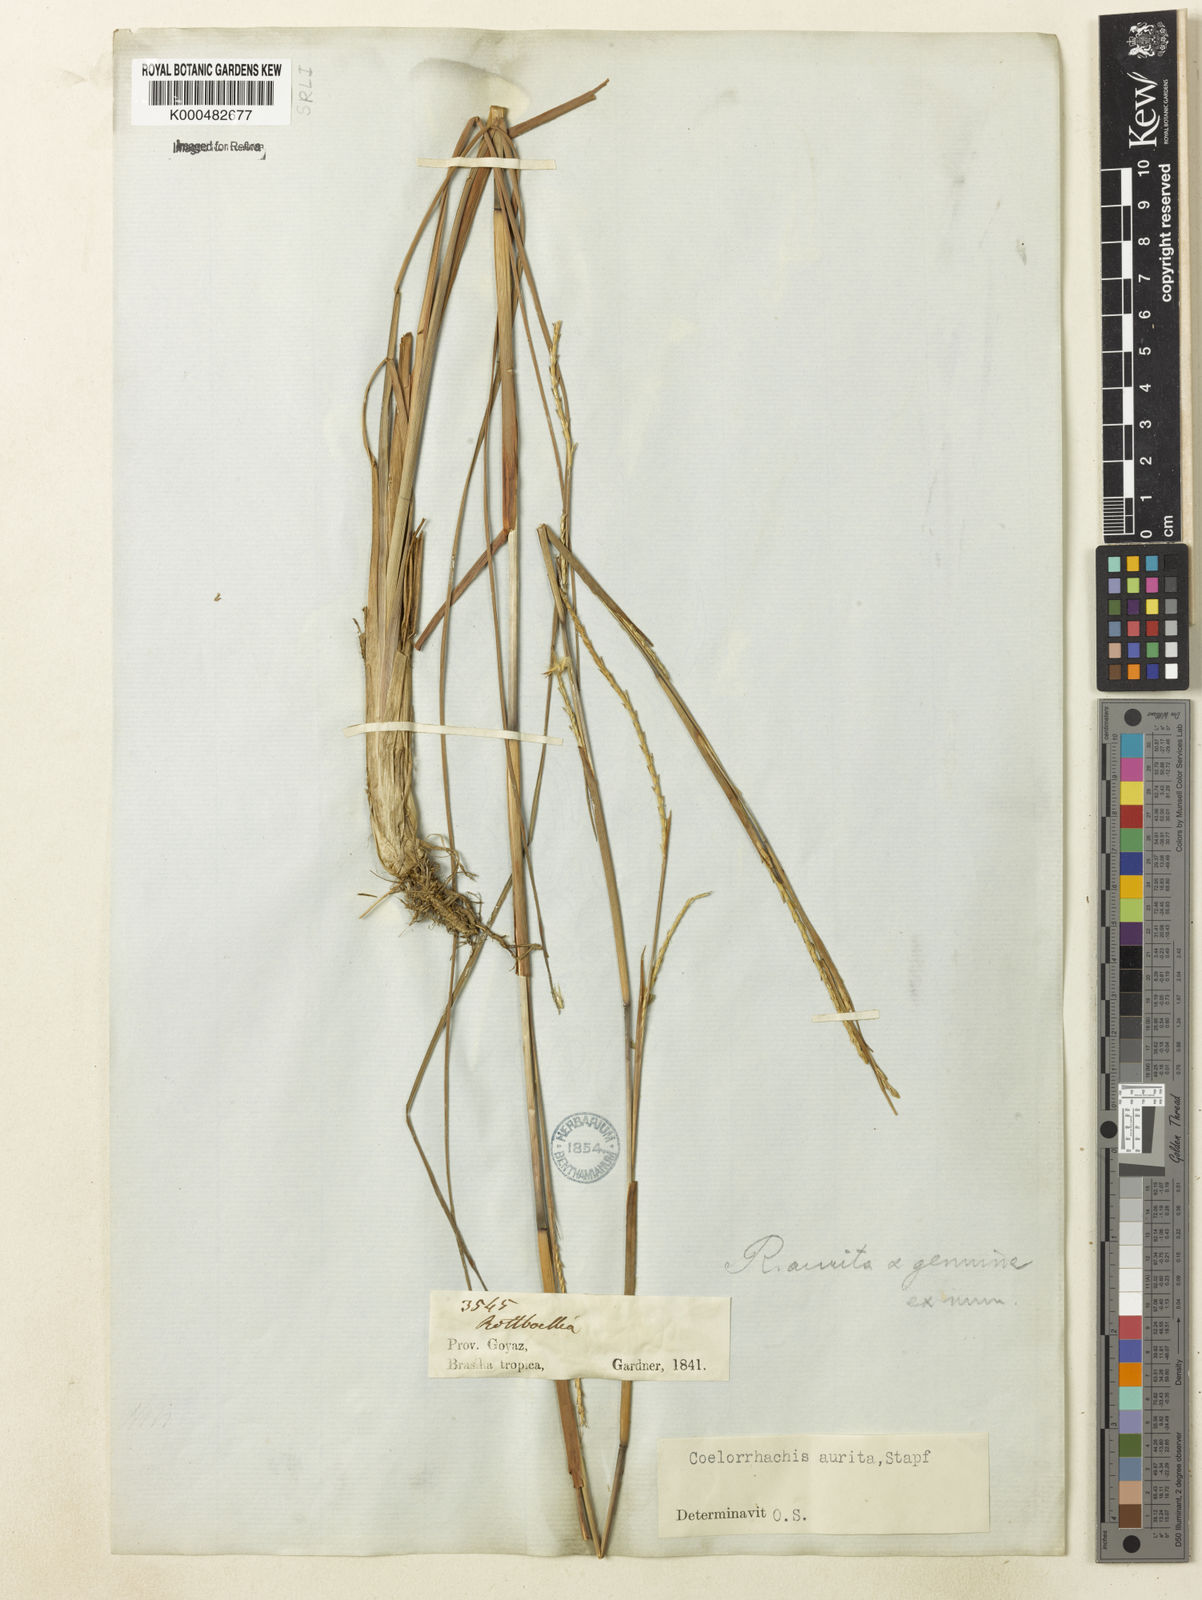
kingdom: Plantae
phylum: Tracheophyta
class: Liliopsida
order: Poales
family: Poaceae
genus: Rottboellia
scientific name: Rottboellia aurita
